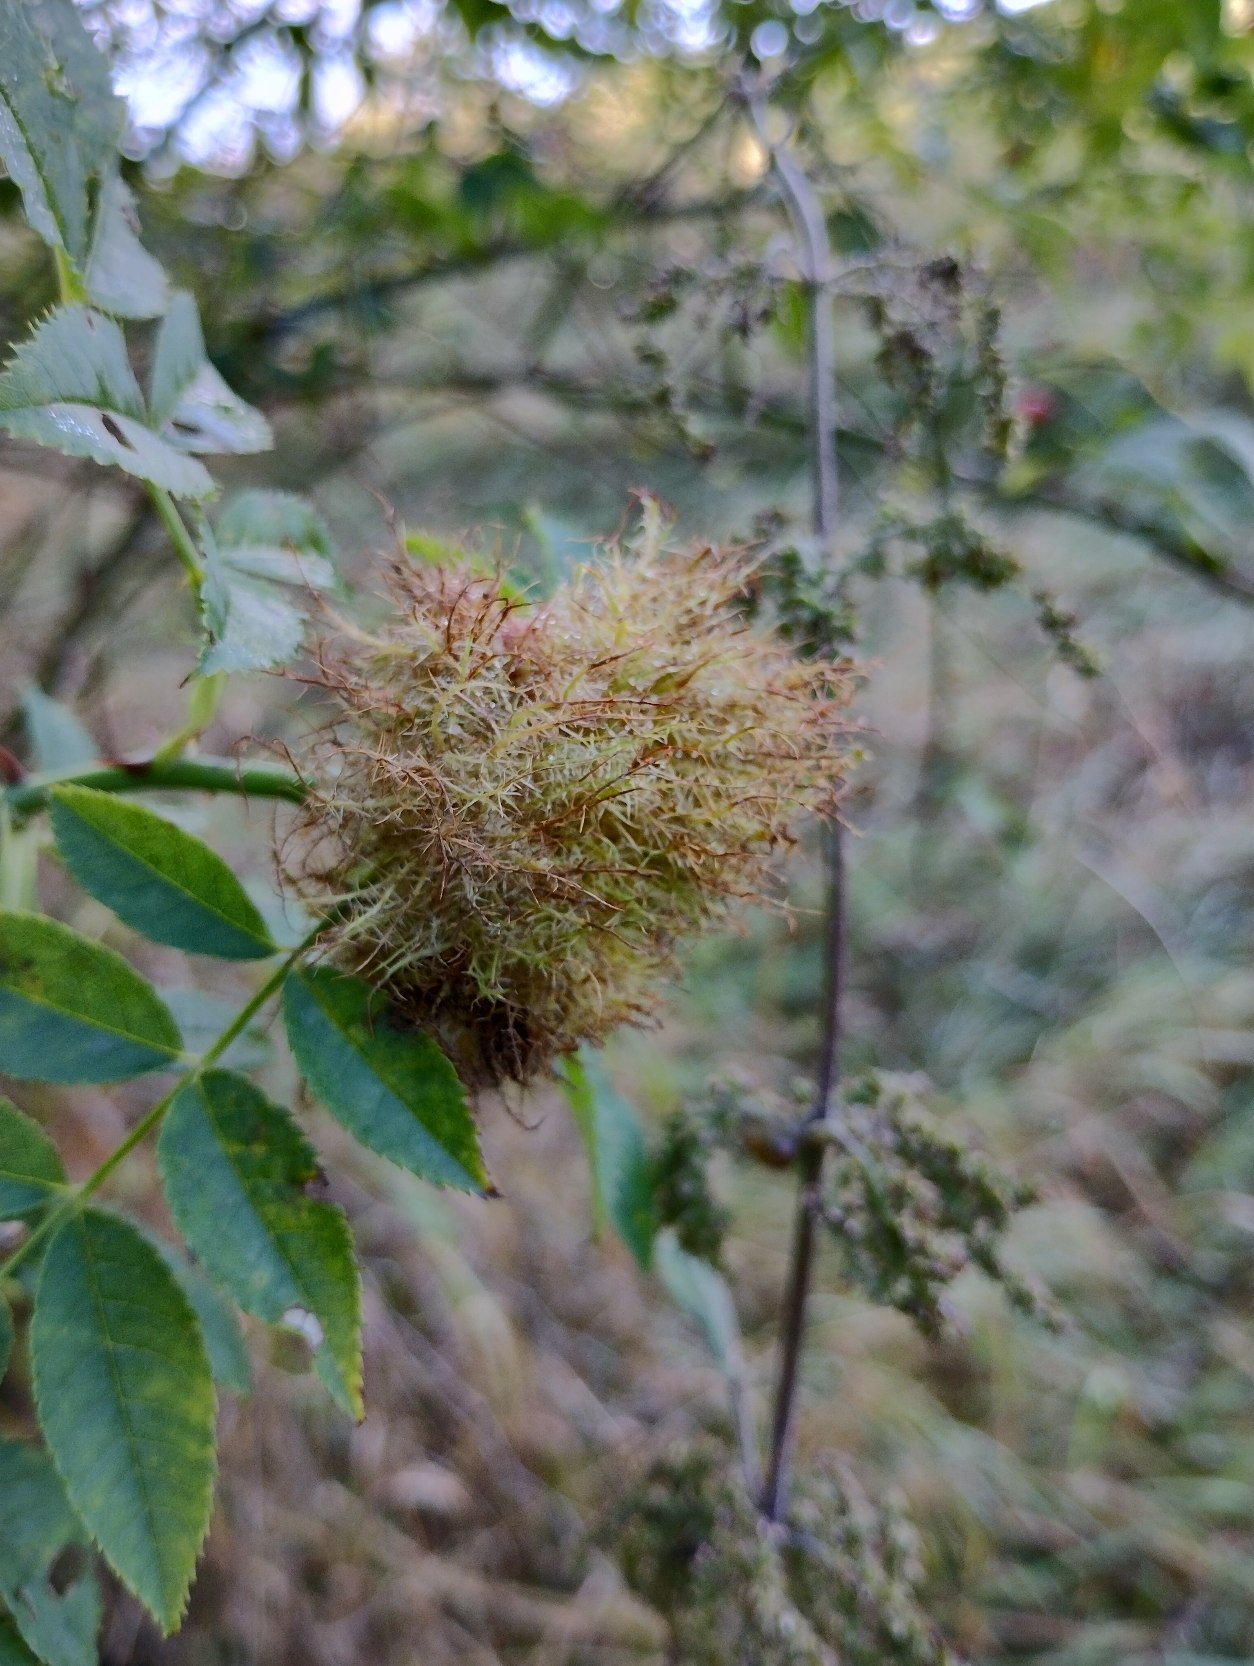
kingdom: Animalia
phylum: Arthropoda
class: Insecta
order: Hymenoptera
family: Cynipidae
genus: Diplolepis
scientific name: Diplolepis rosae
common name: Bedeguargalhveps
